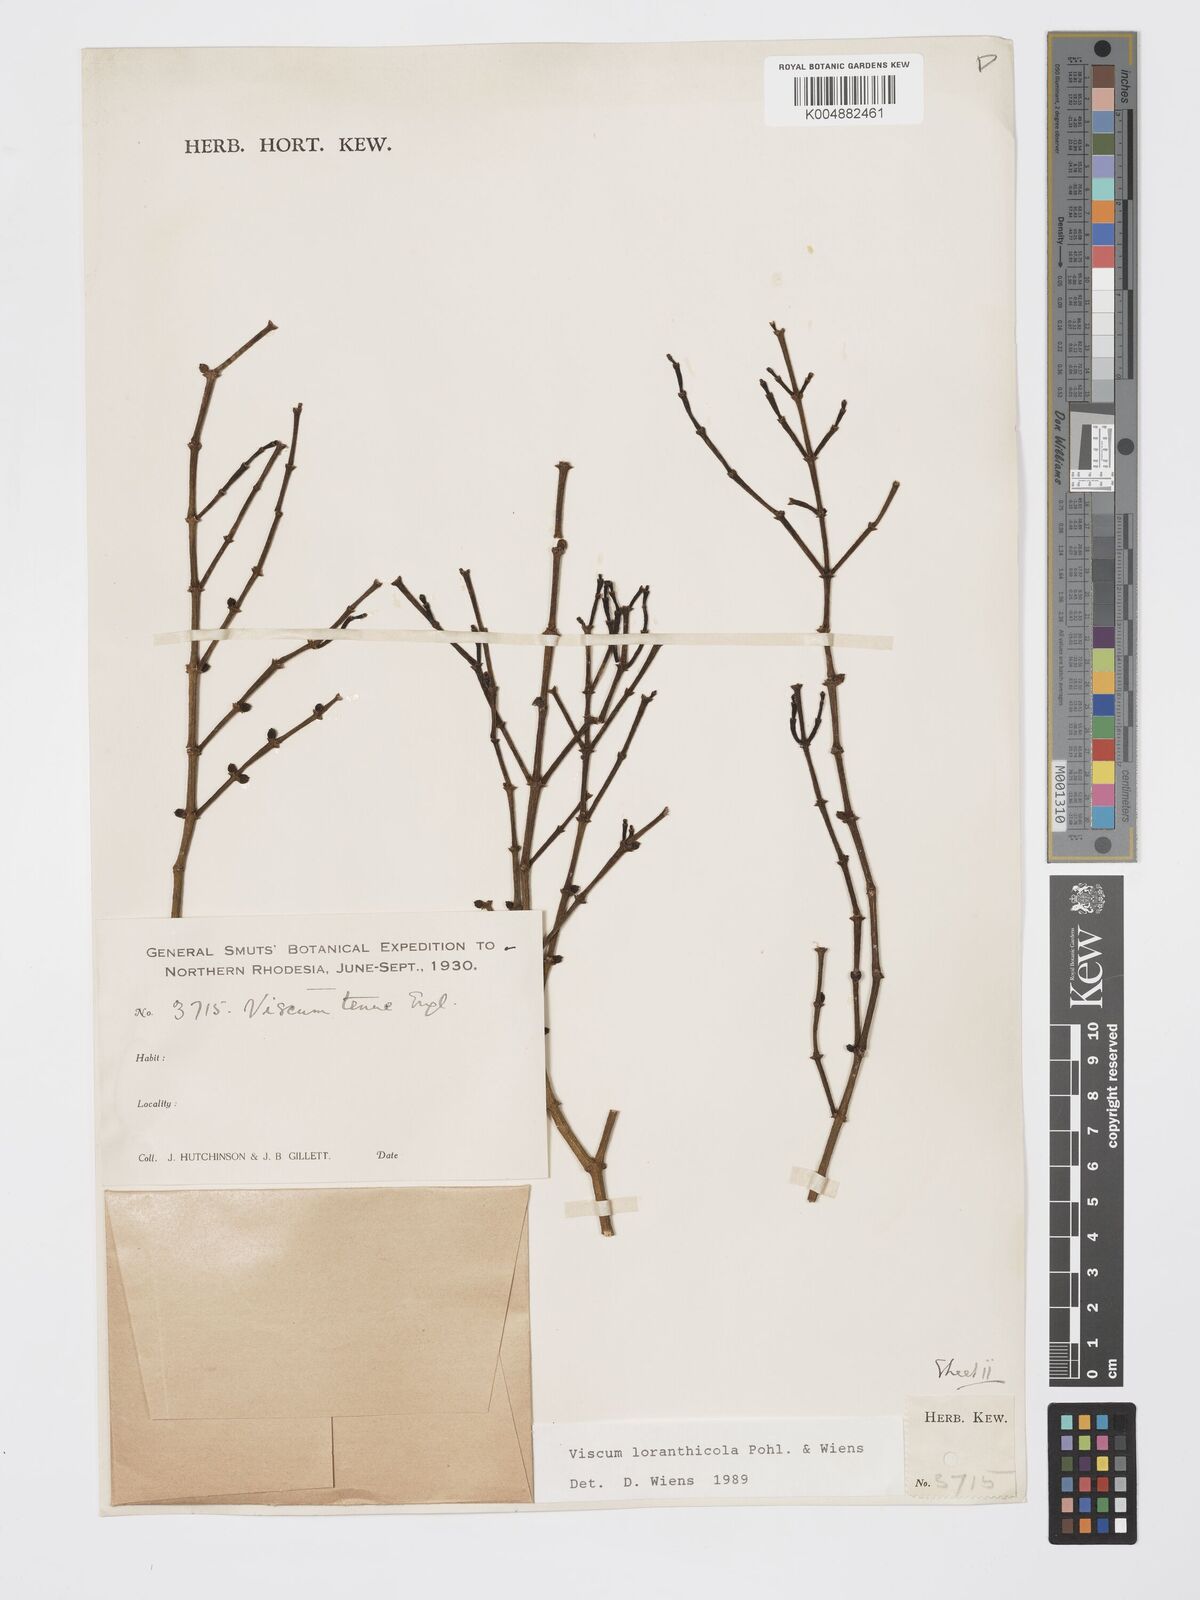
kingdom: Plantae
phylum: Tracheophyta
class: Magnoliopsida
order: Santalales
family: Viscaceae
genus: Viscum
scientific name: Viscum loranthicola
